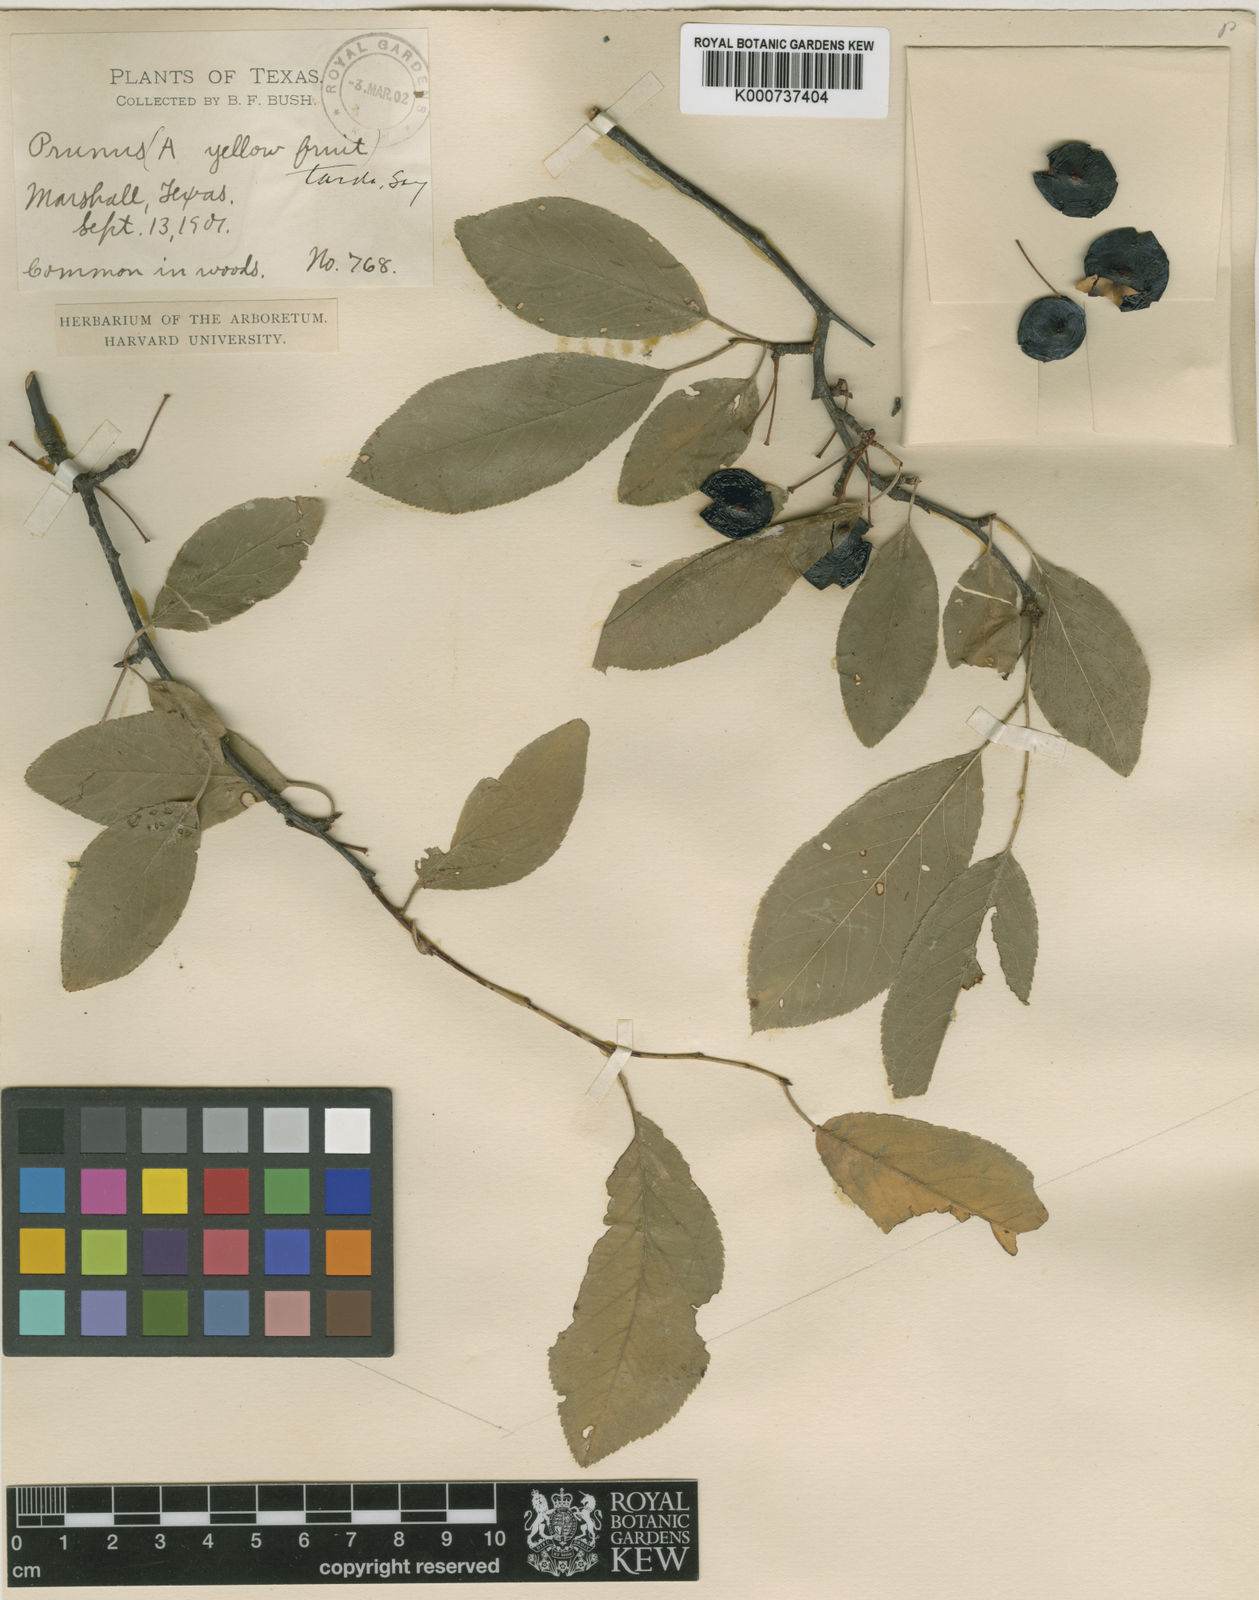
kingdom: Plantae
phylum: Tracheophyta
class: Magnoliopsida
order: Rosales
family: Rosaceae
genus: Prunus
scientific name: Prunus umbellata
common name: Allegheny plum
